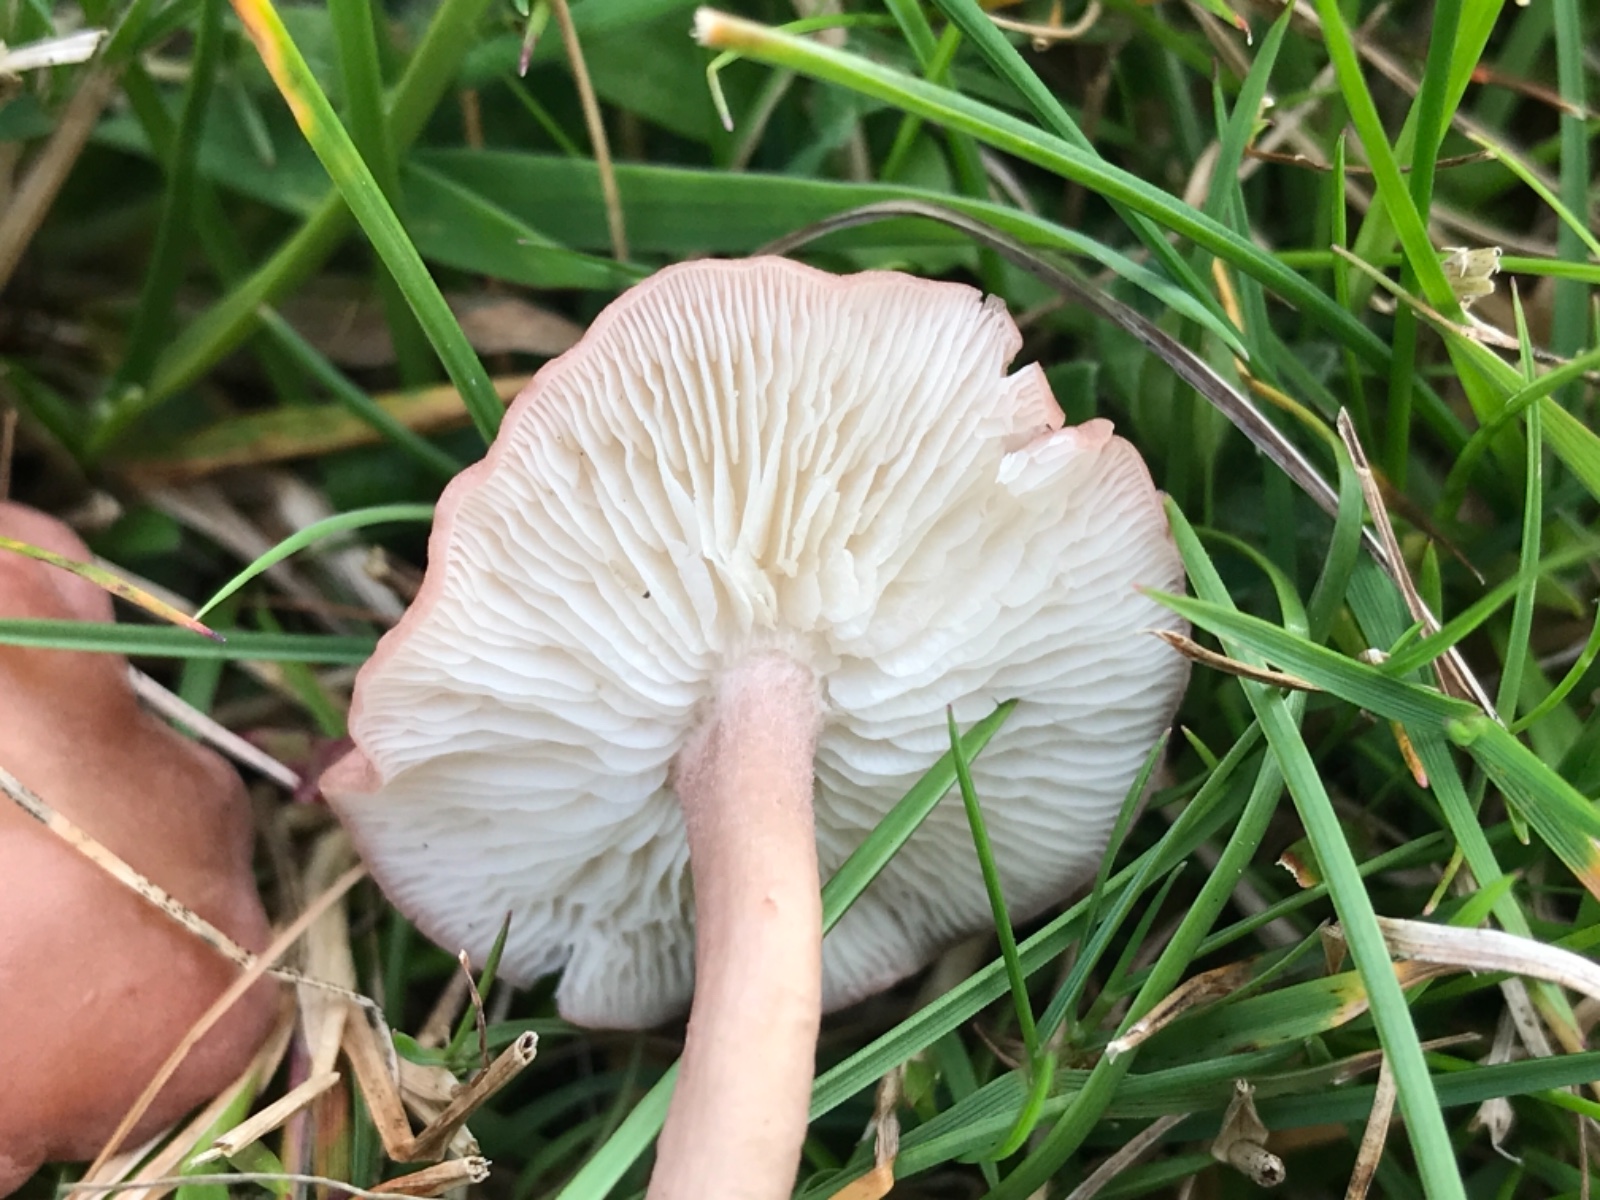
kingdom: Fungi
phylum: Basidiomycota
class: Agaricomycetes
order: Agaricales
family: Lyophyllaceae
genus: Calocybe
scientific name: Calocybe carnea
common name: rosa fagerhat
